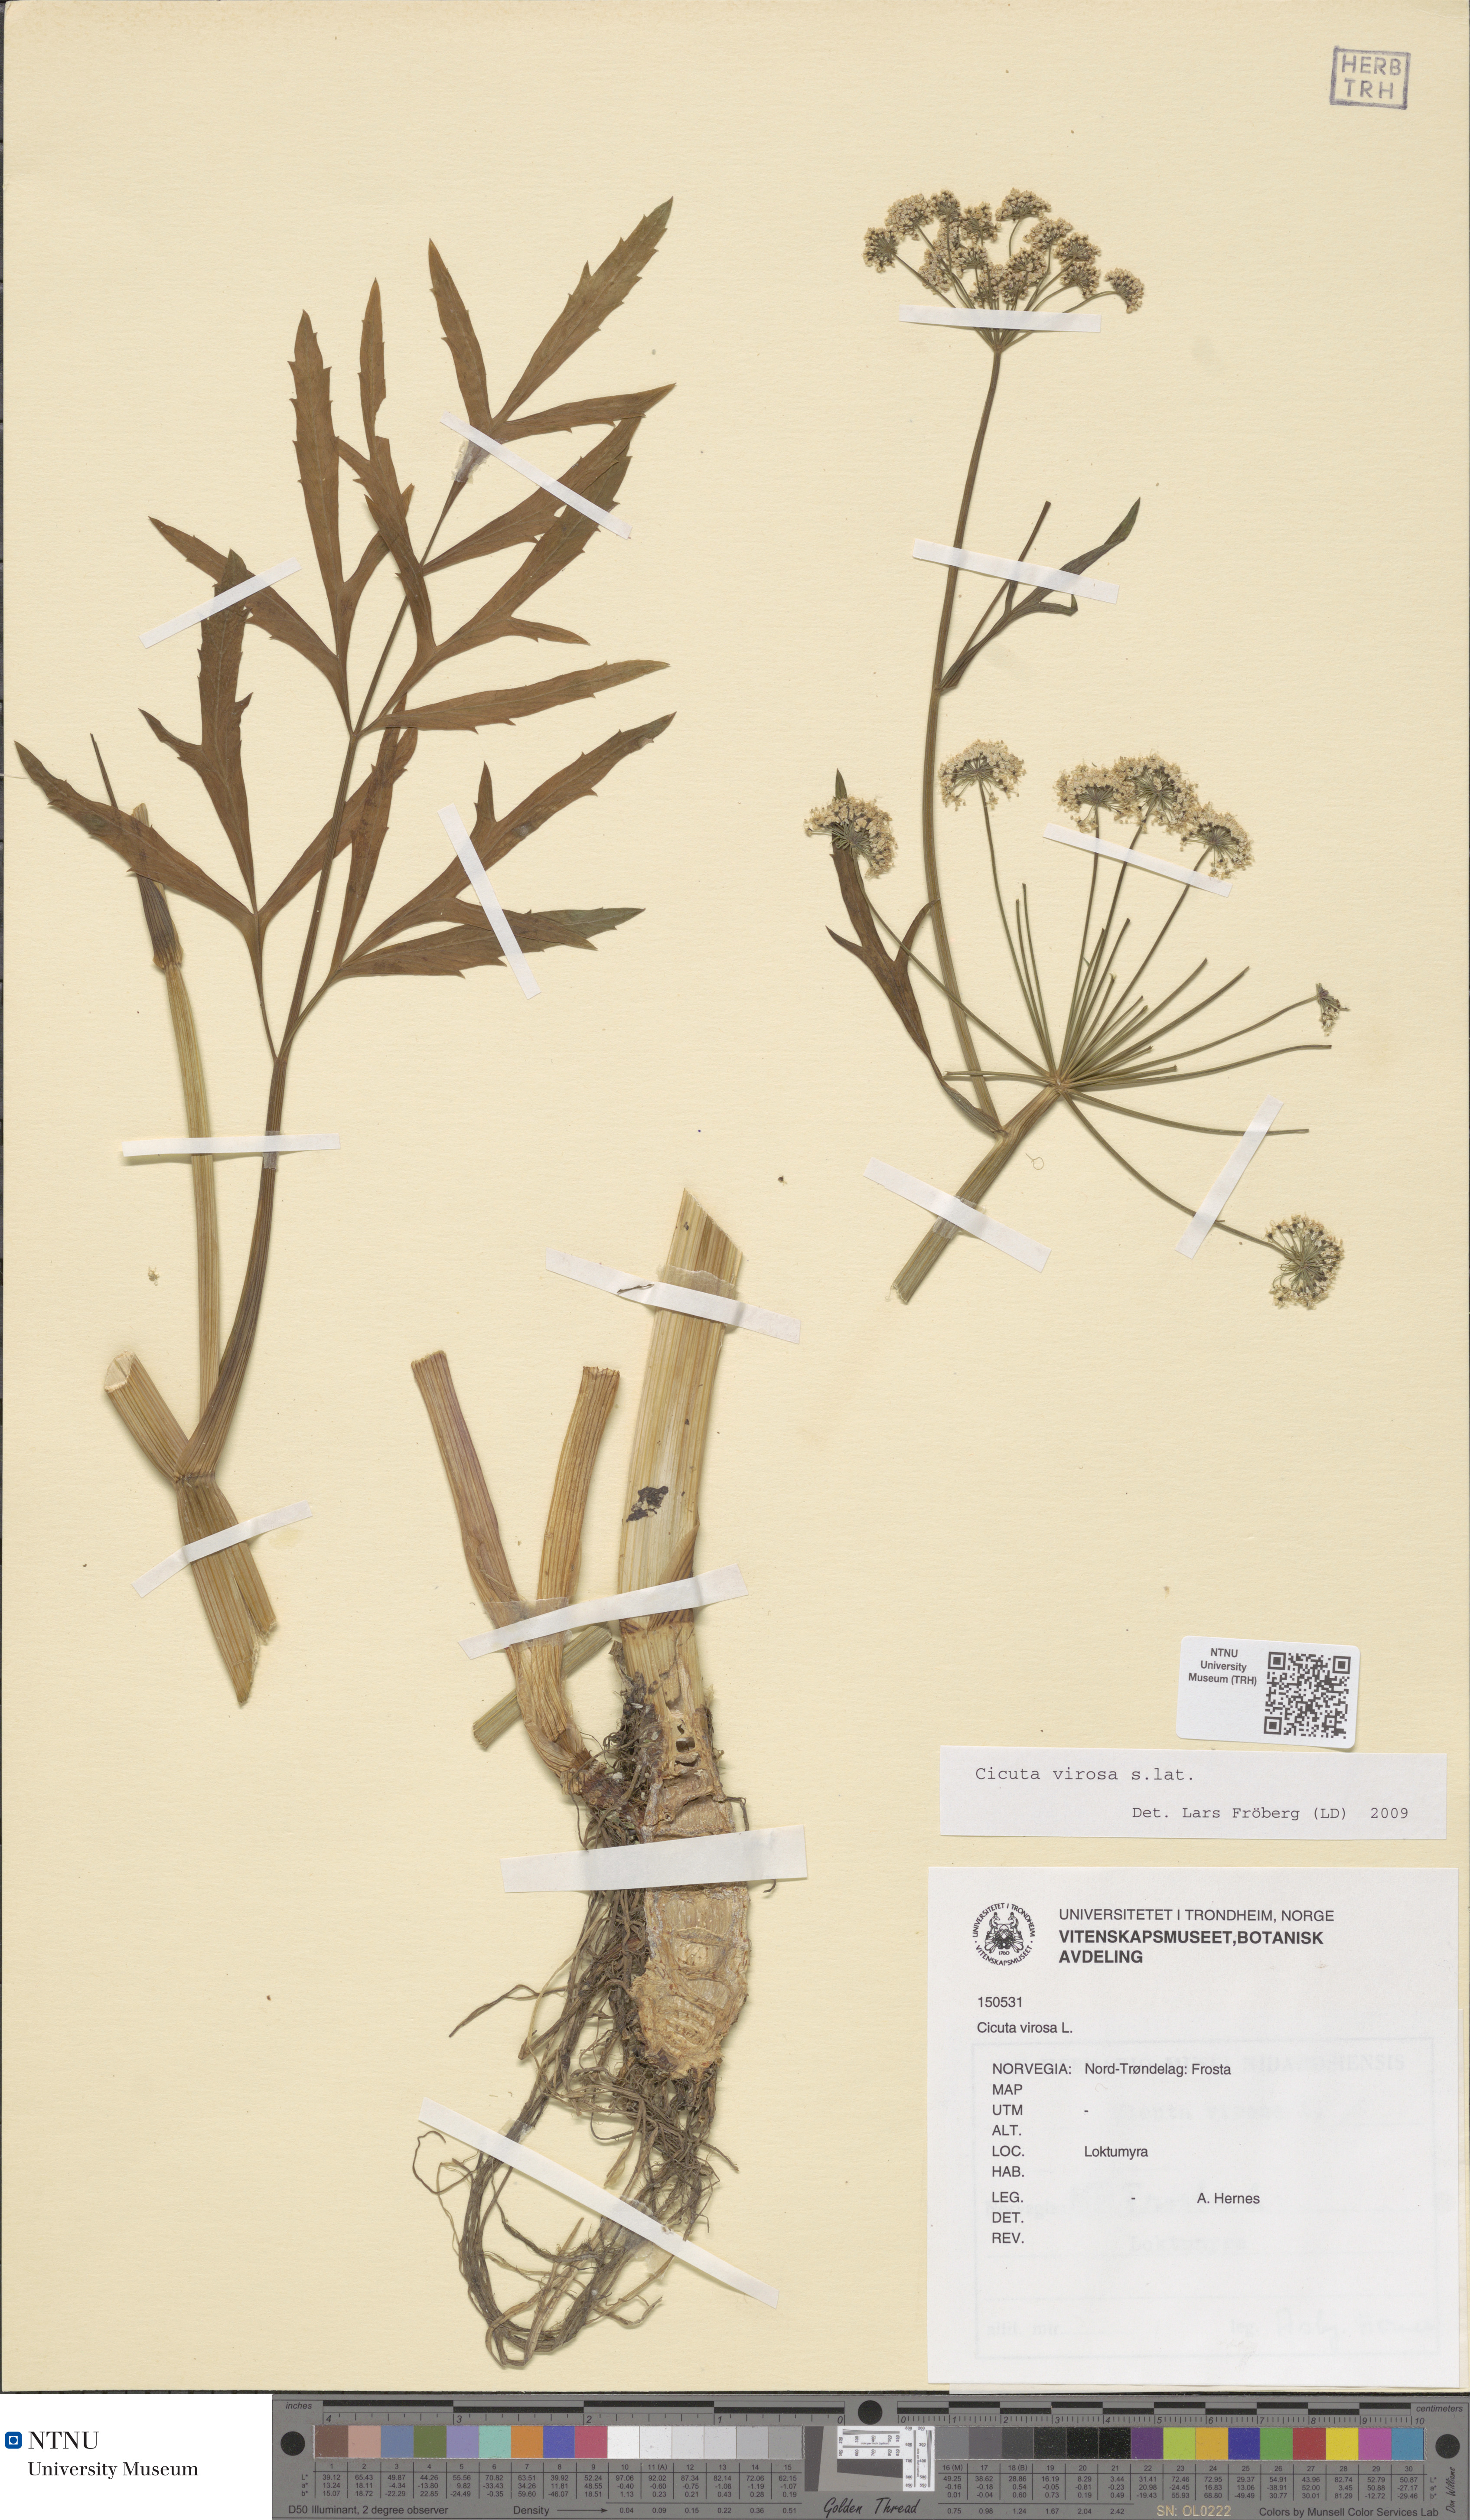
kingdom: Plantae
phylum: Tracheophyta
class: Magnoliopsida
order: Apiales
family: Apiaceae
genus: Cicuta
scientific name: Cicuta virosa
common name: Cowbane
